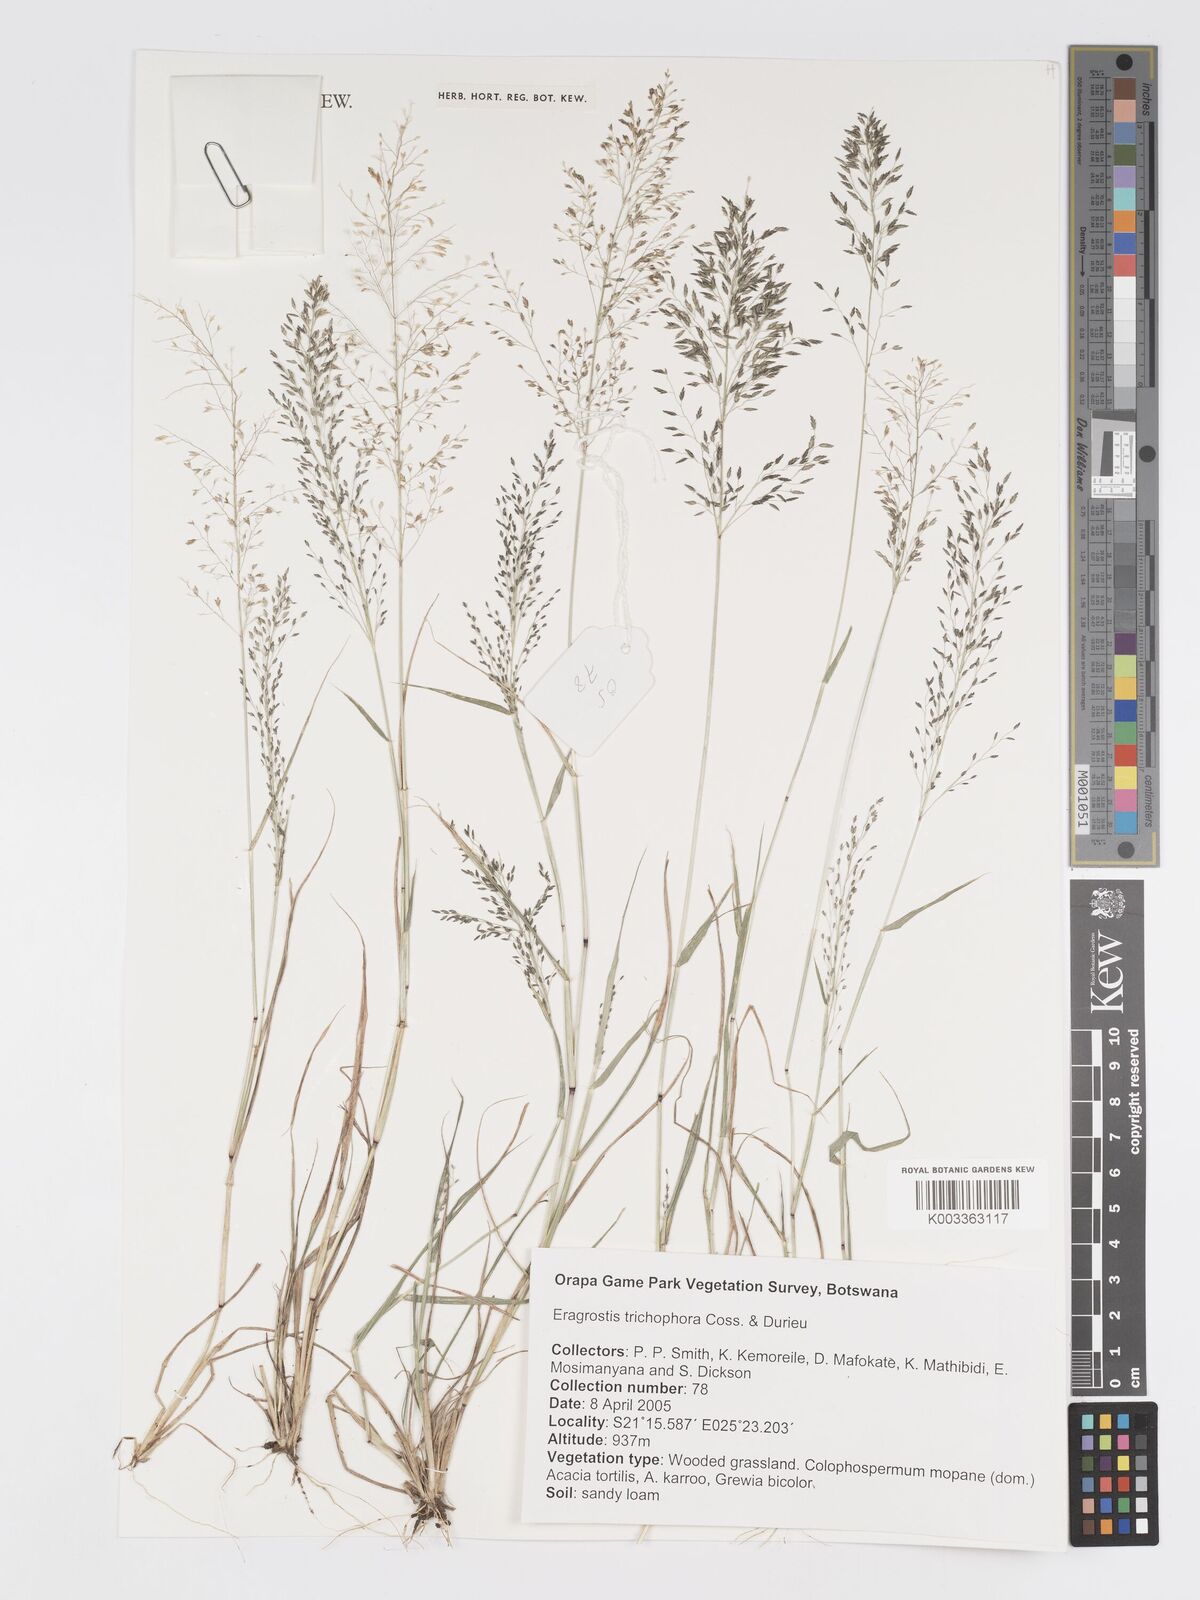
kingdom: Plantae
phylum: Tracheophyta
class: Liliopsida
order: Poales
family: Poaceae
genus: Eragrostis
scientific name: Eragrostis cylindriflora
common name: Cylinderflower lovegrass
